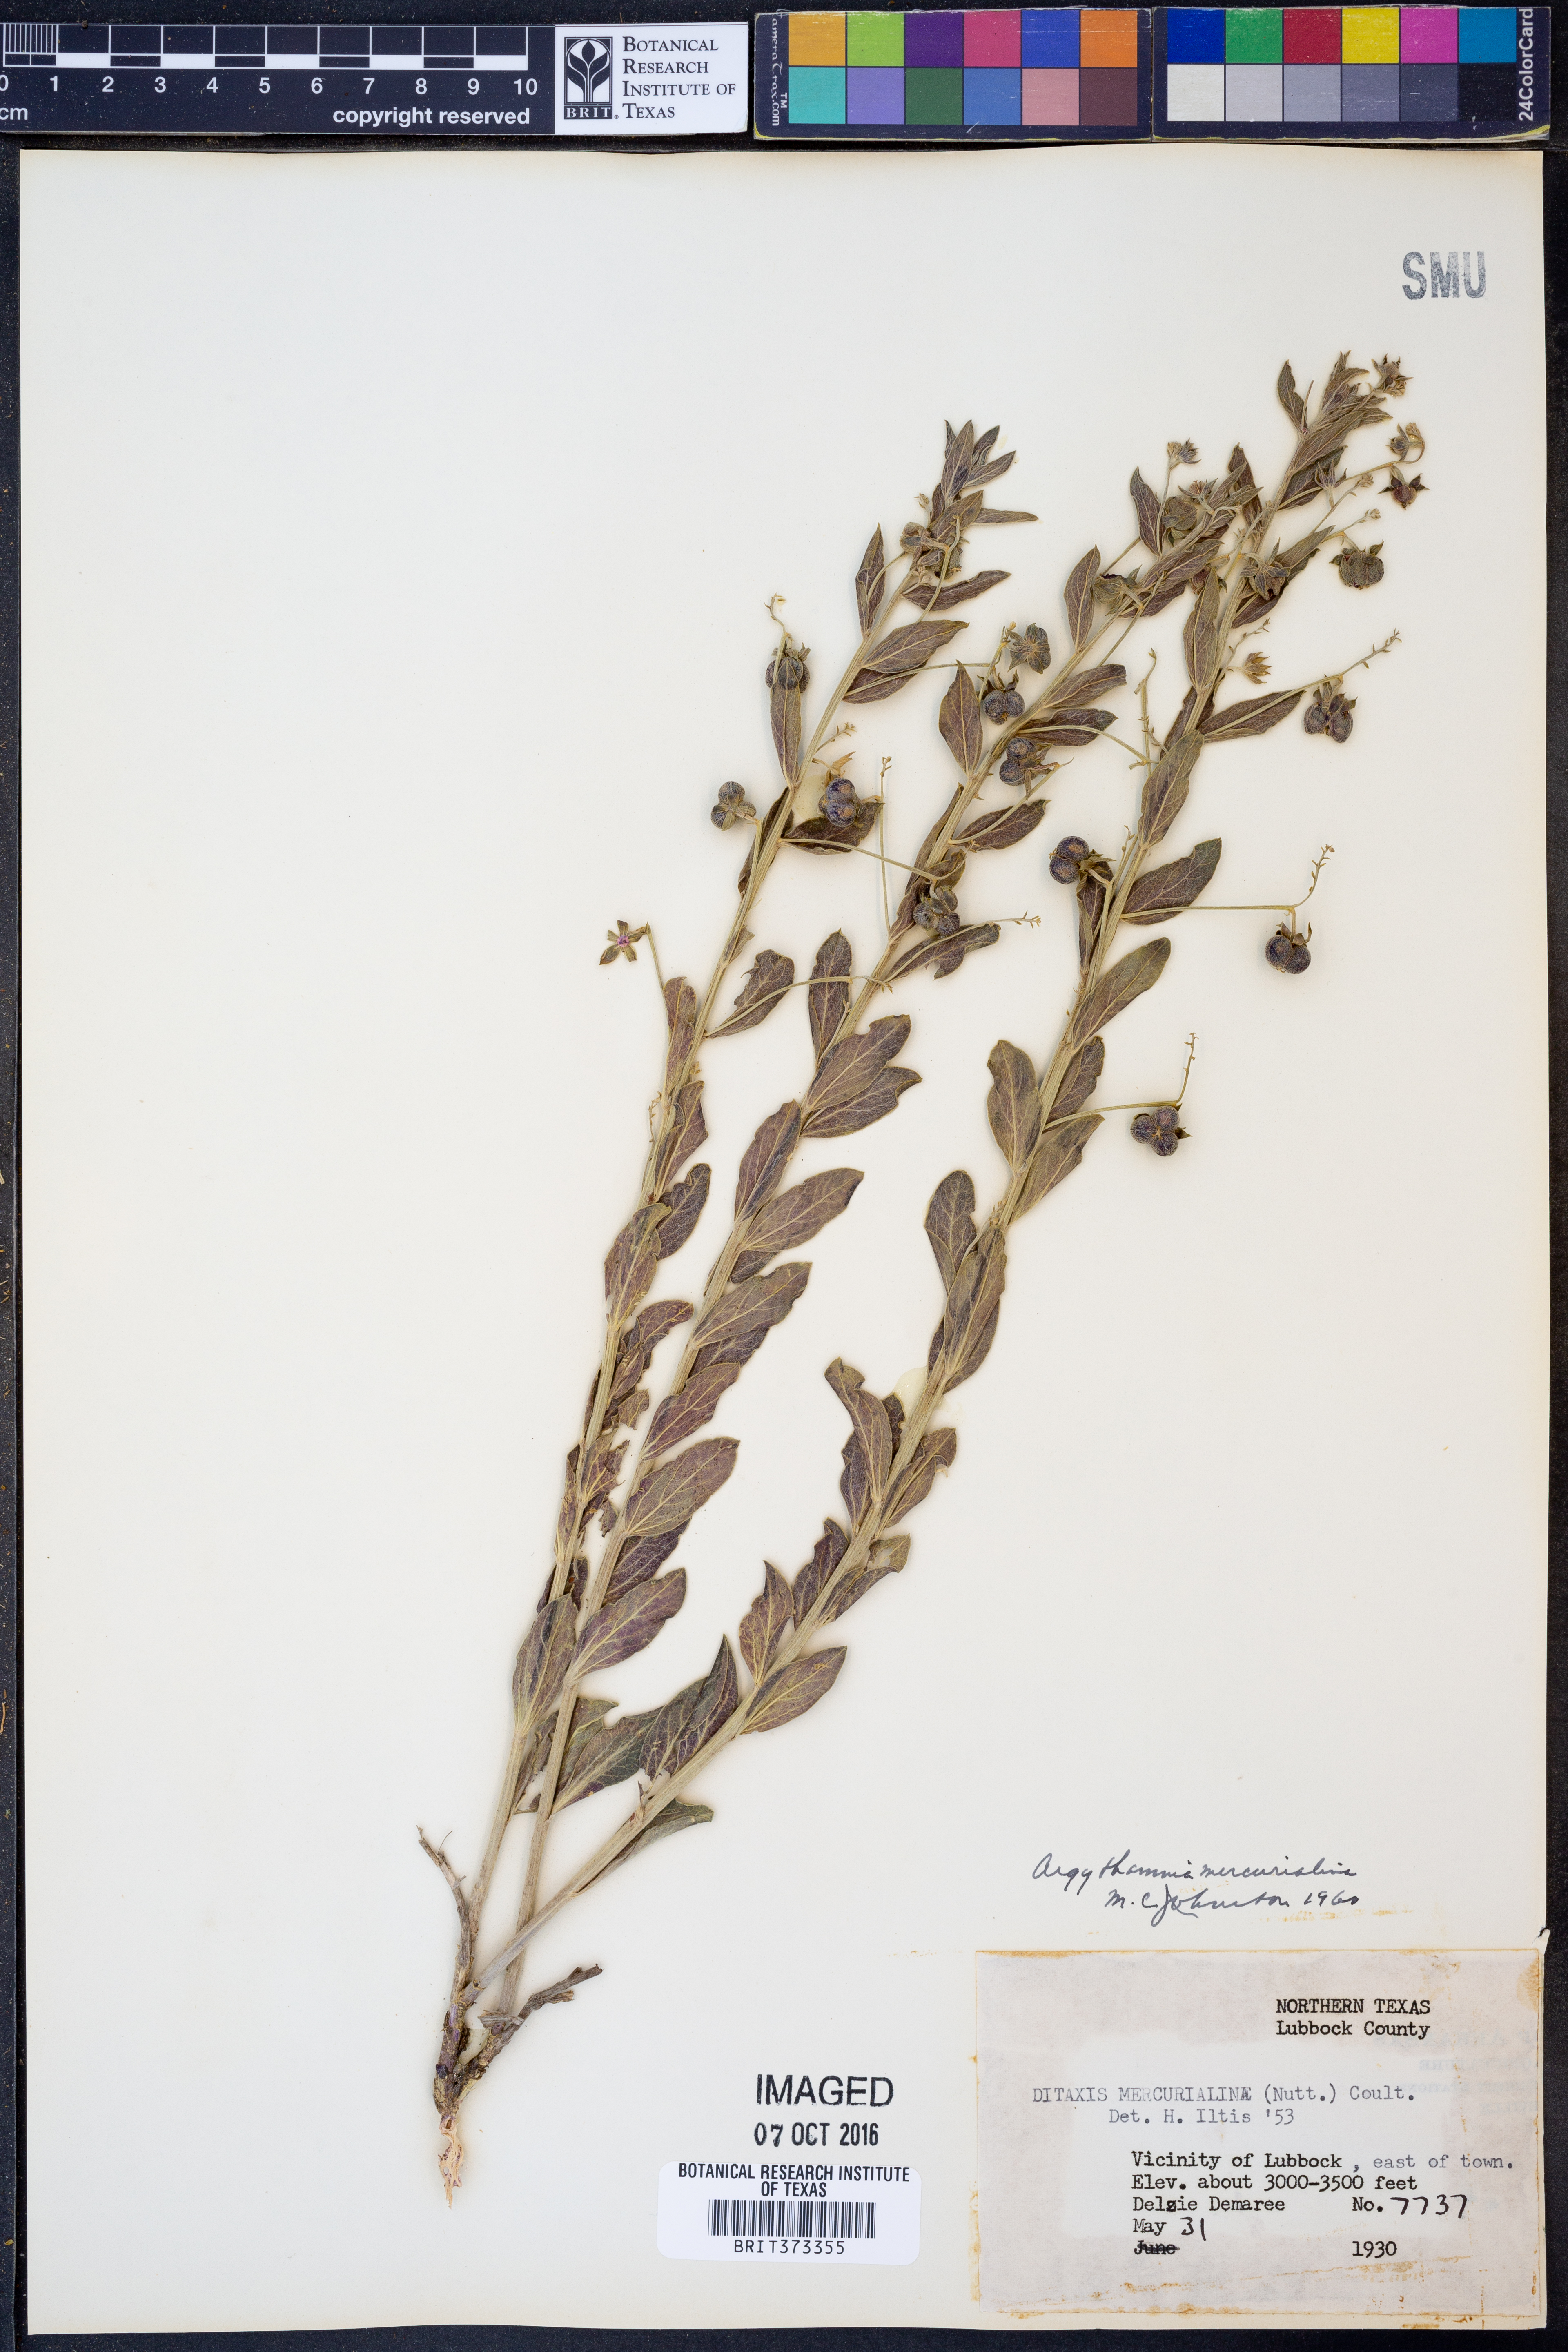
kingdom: Plantae
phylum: Tracheophyta
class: Magnoliopsida
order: Malpighiales
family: Euphorbiaceae
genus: Ditaxis
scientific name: Ditaxis mercurialina
